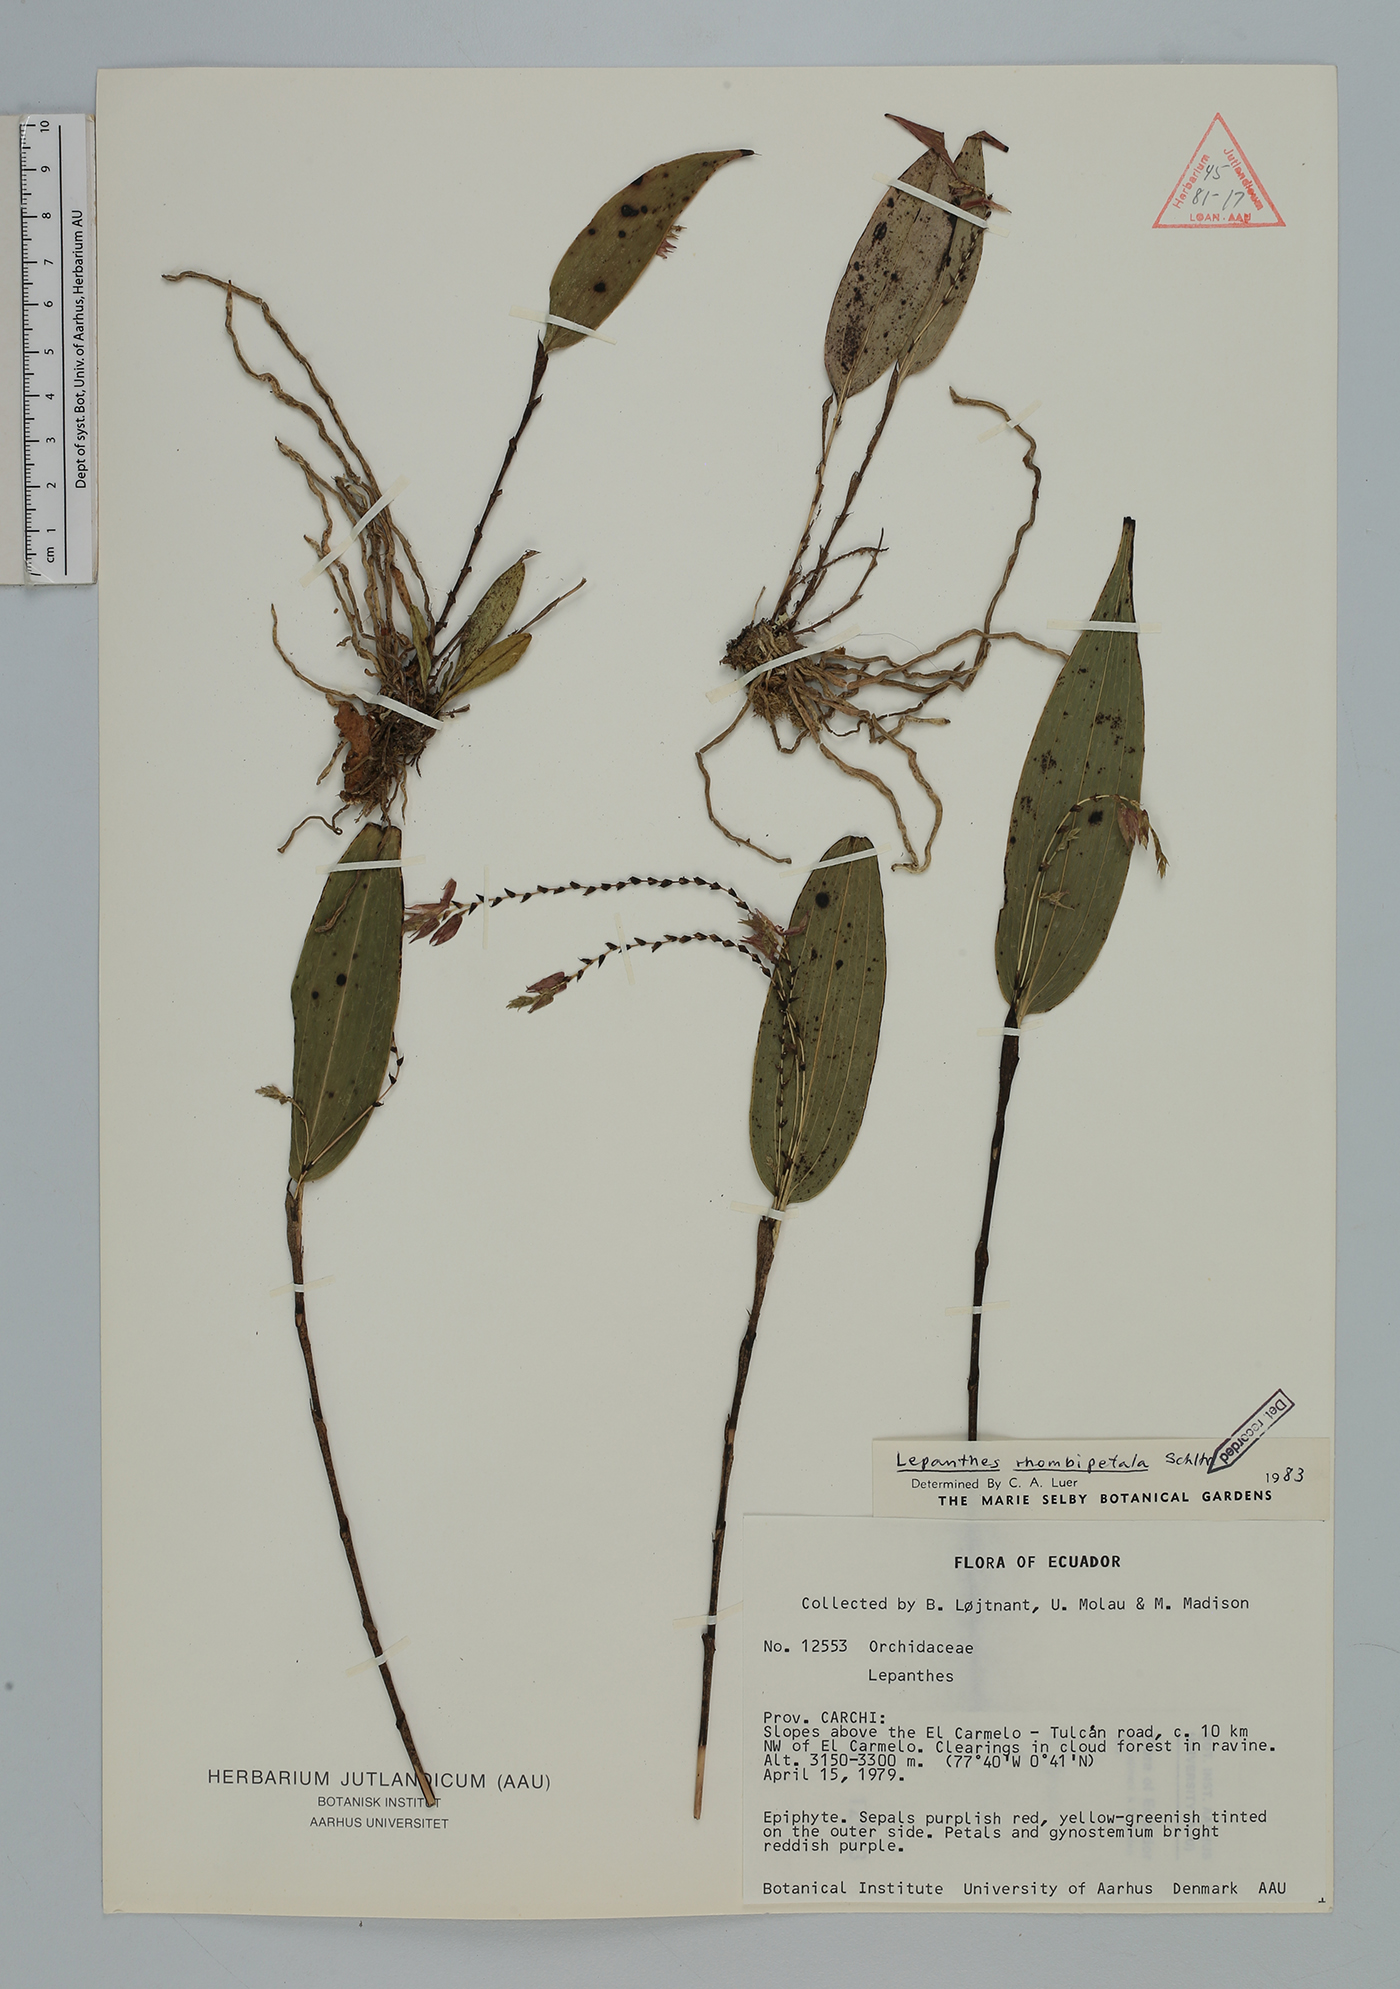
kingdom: Plantae
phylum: Tracheophyta
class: Liliopsida
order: Asparagales
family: Orchidaceae
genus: Lepanthes
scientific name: Lepanthes rhombipetala
